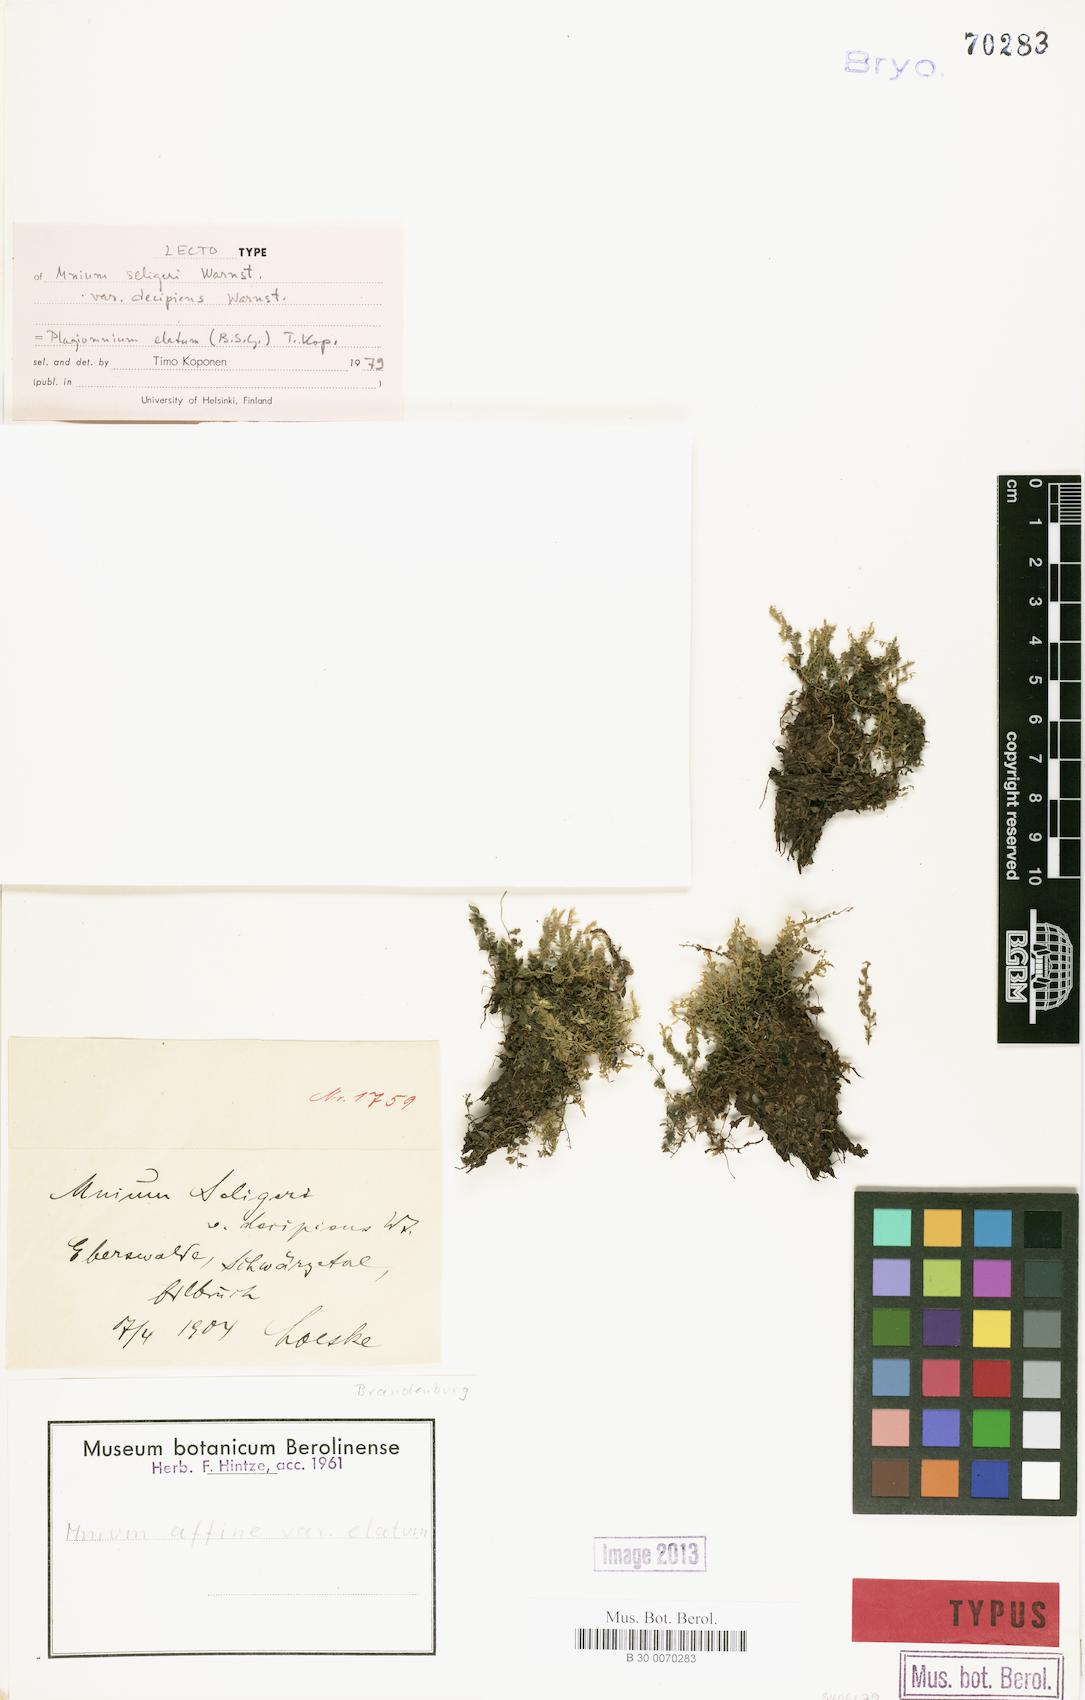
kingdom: Plantae
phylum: Bryophyta
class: Bryopsida
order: Bryales
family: Mniaceae
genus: Plagiomnium
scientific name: Plagiomnium elatum
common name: Tall thyme-moss
